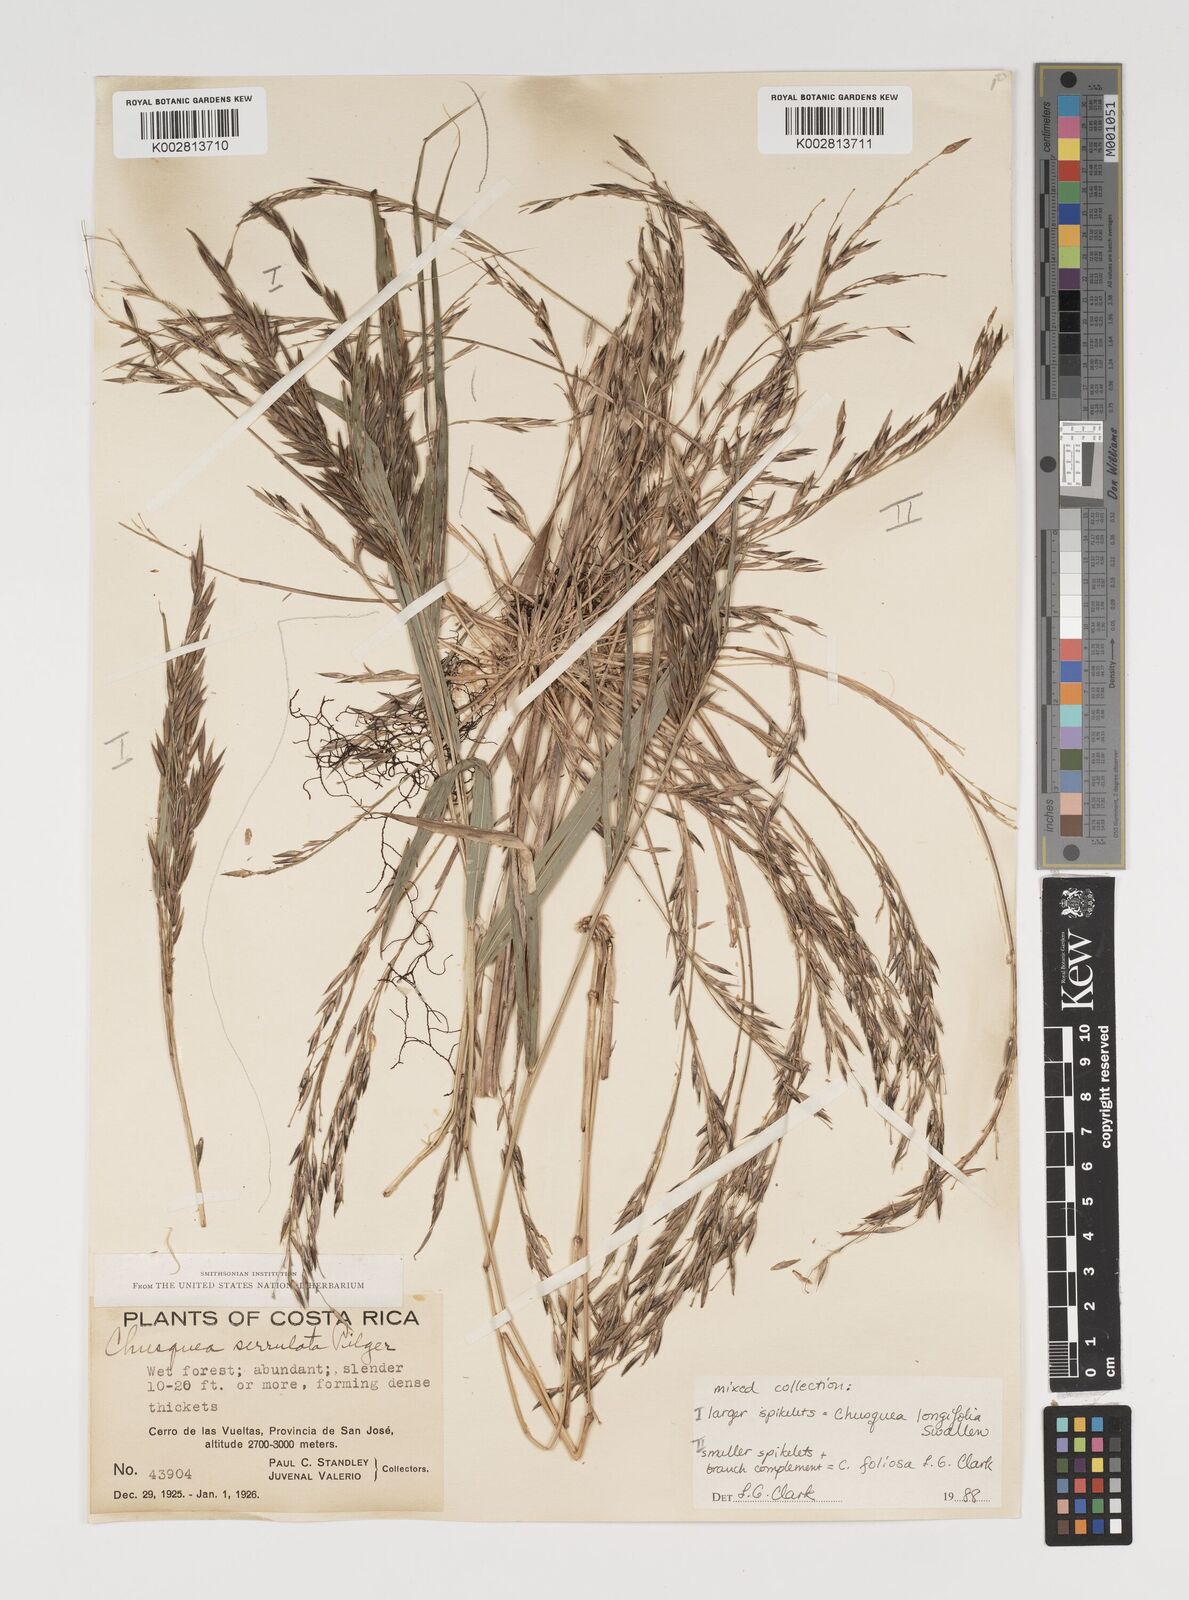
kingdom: Plantae
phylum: Tracheophyta
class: Liliopsida
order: Poales
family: Poaceae
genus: Chusquea
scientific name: Chusquea longifolia
